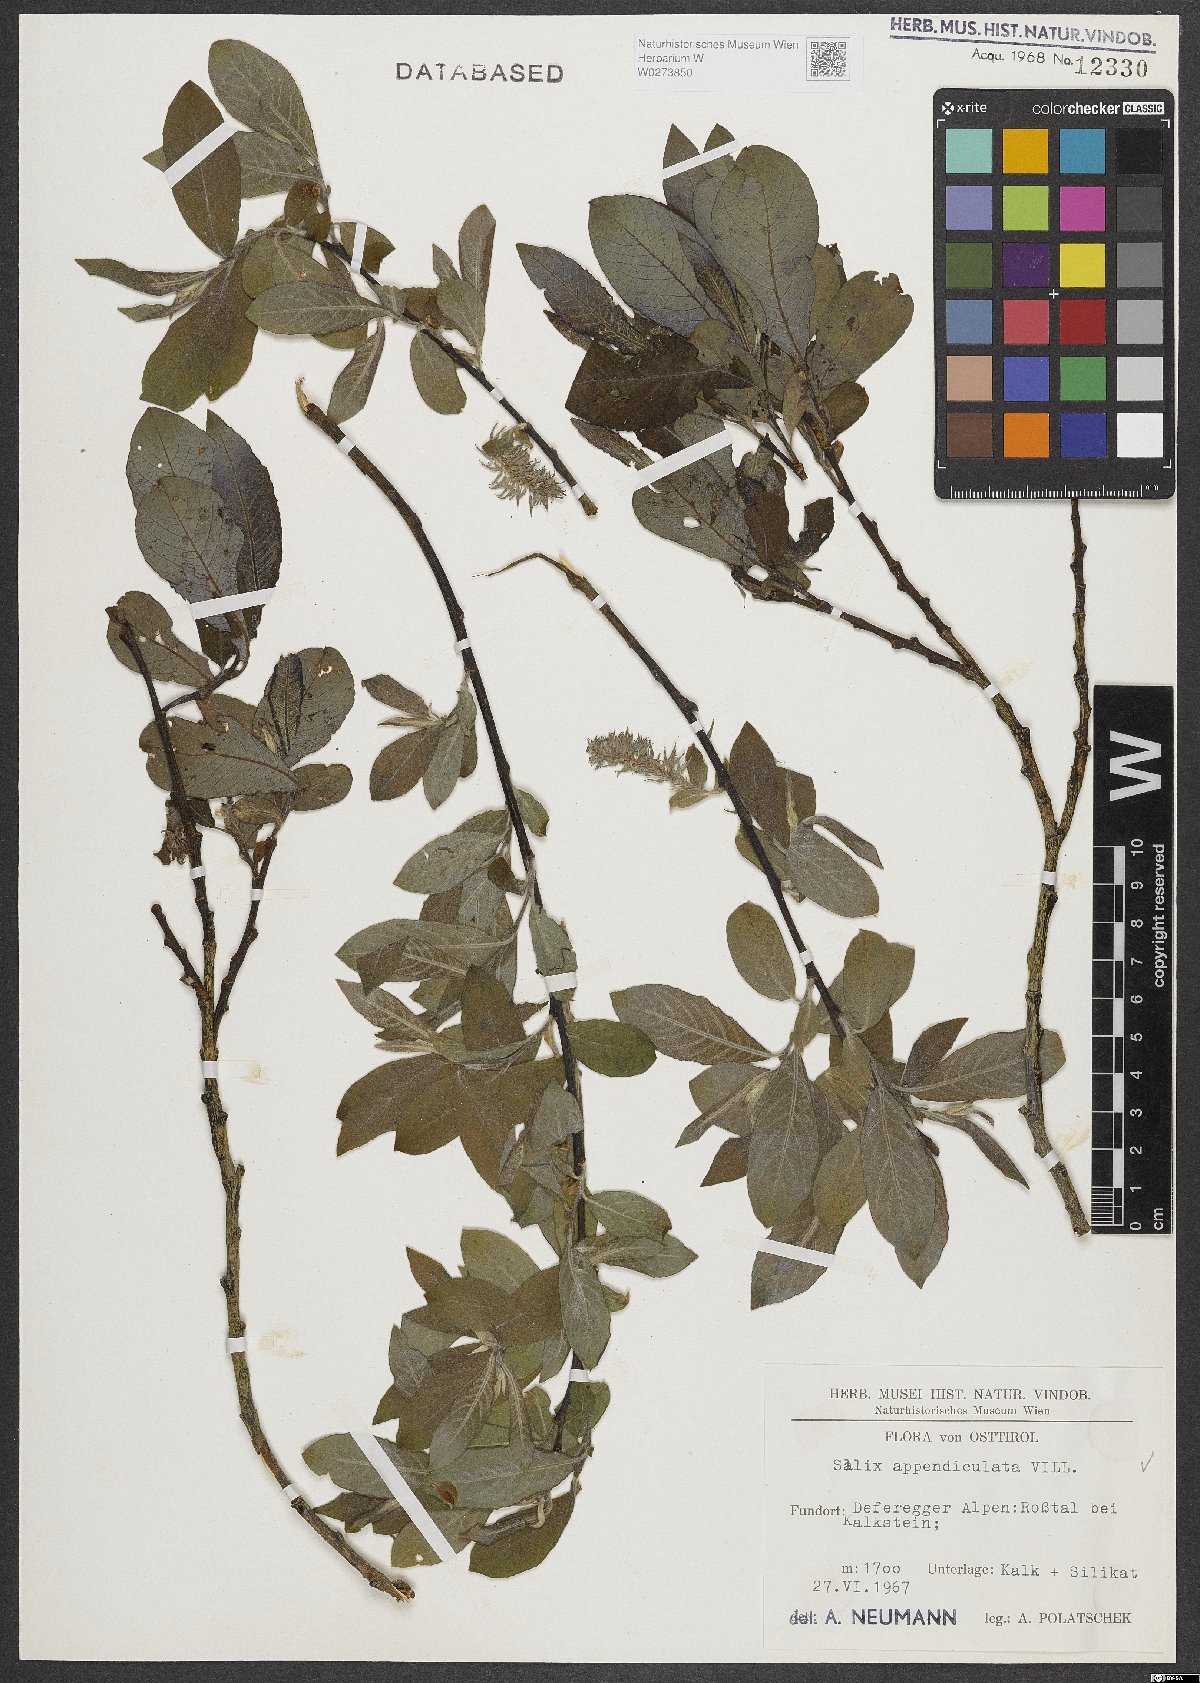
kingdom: Plantae
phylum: Tracheophyta
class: Magnoliopsida
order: Malpighiales
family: Salicaceae
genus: Salix
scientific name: Salix appendiculata
